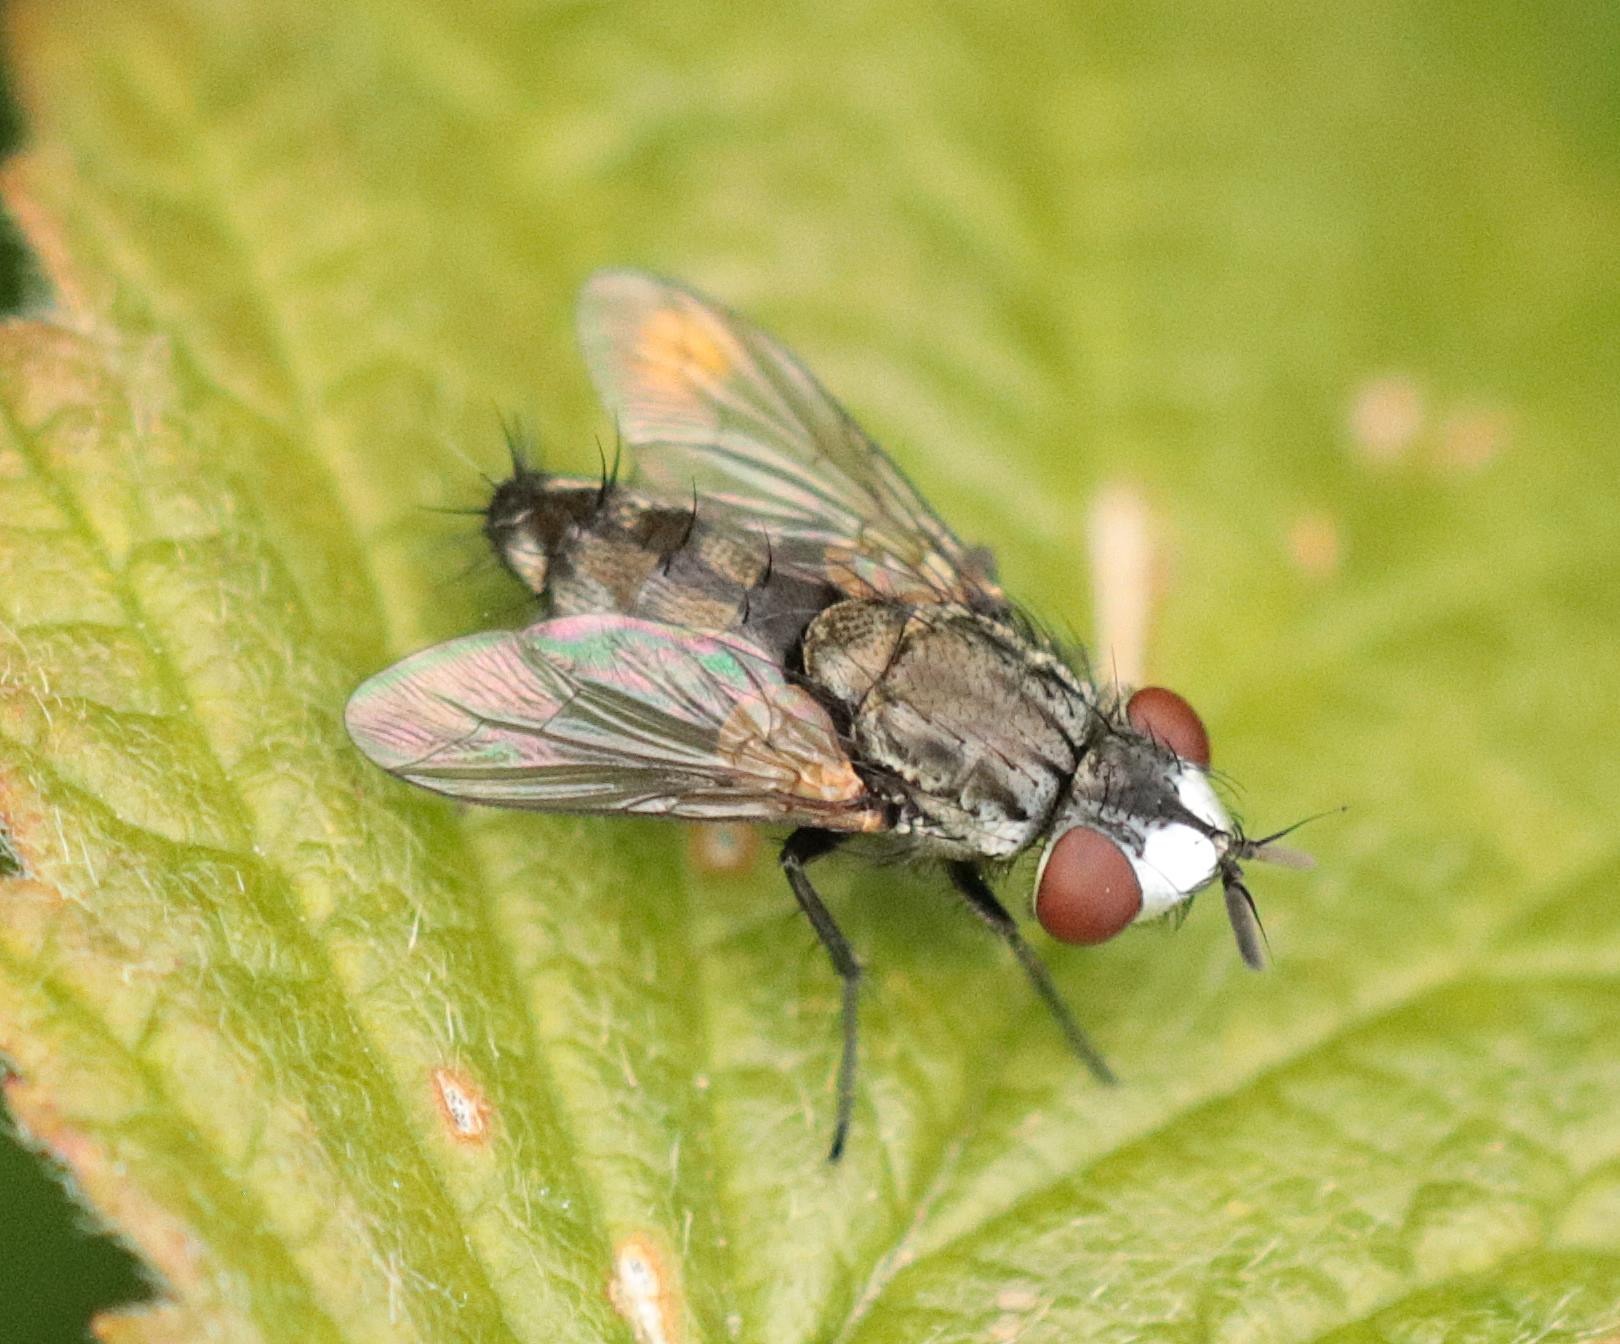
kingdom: Animalia
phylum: Arthropoda
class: Insecta
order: Diptera
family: Sarcophagidae
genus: Metopia
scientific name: Metopia
